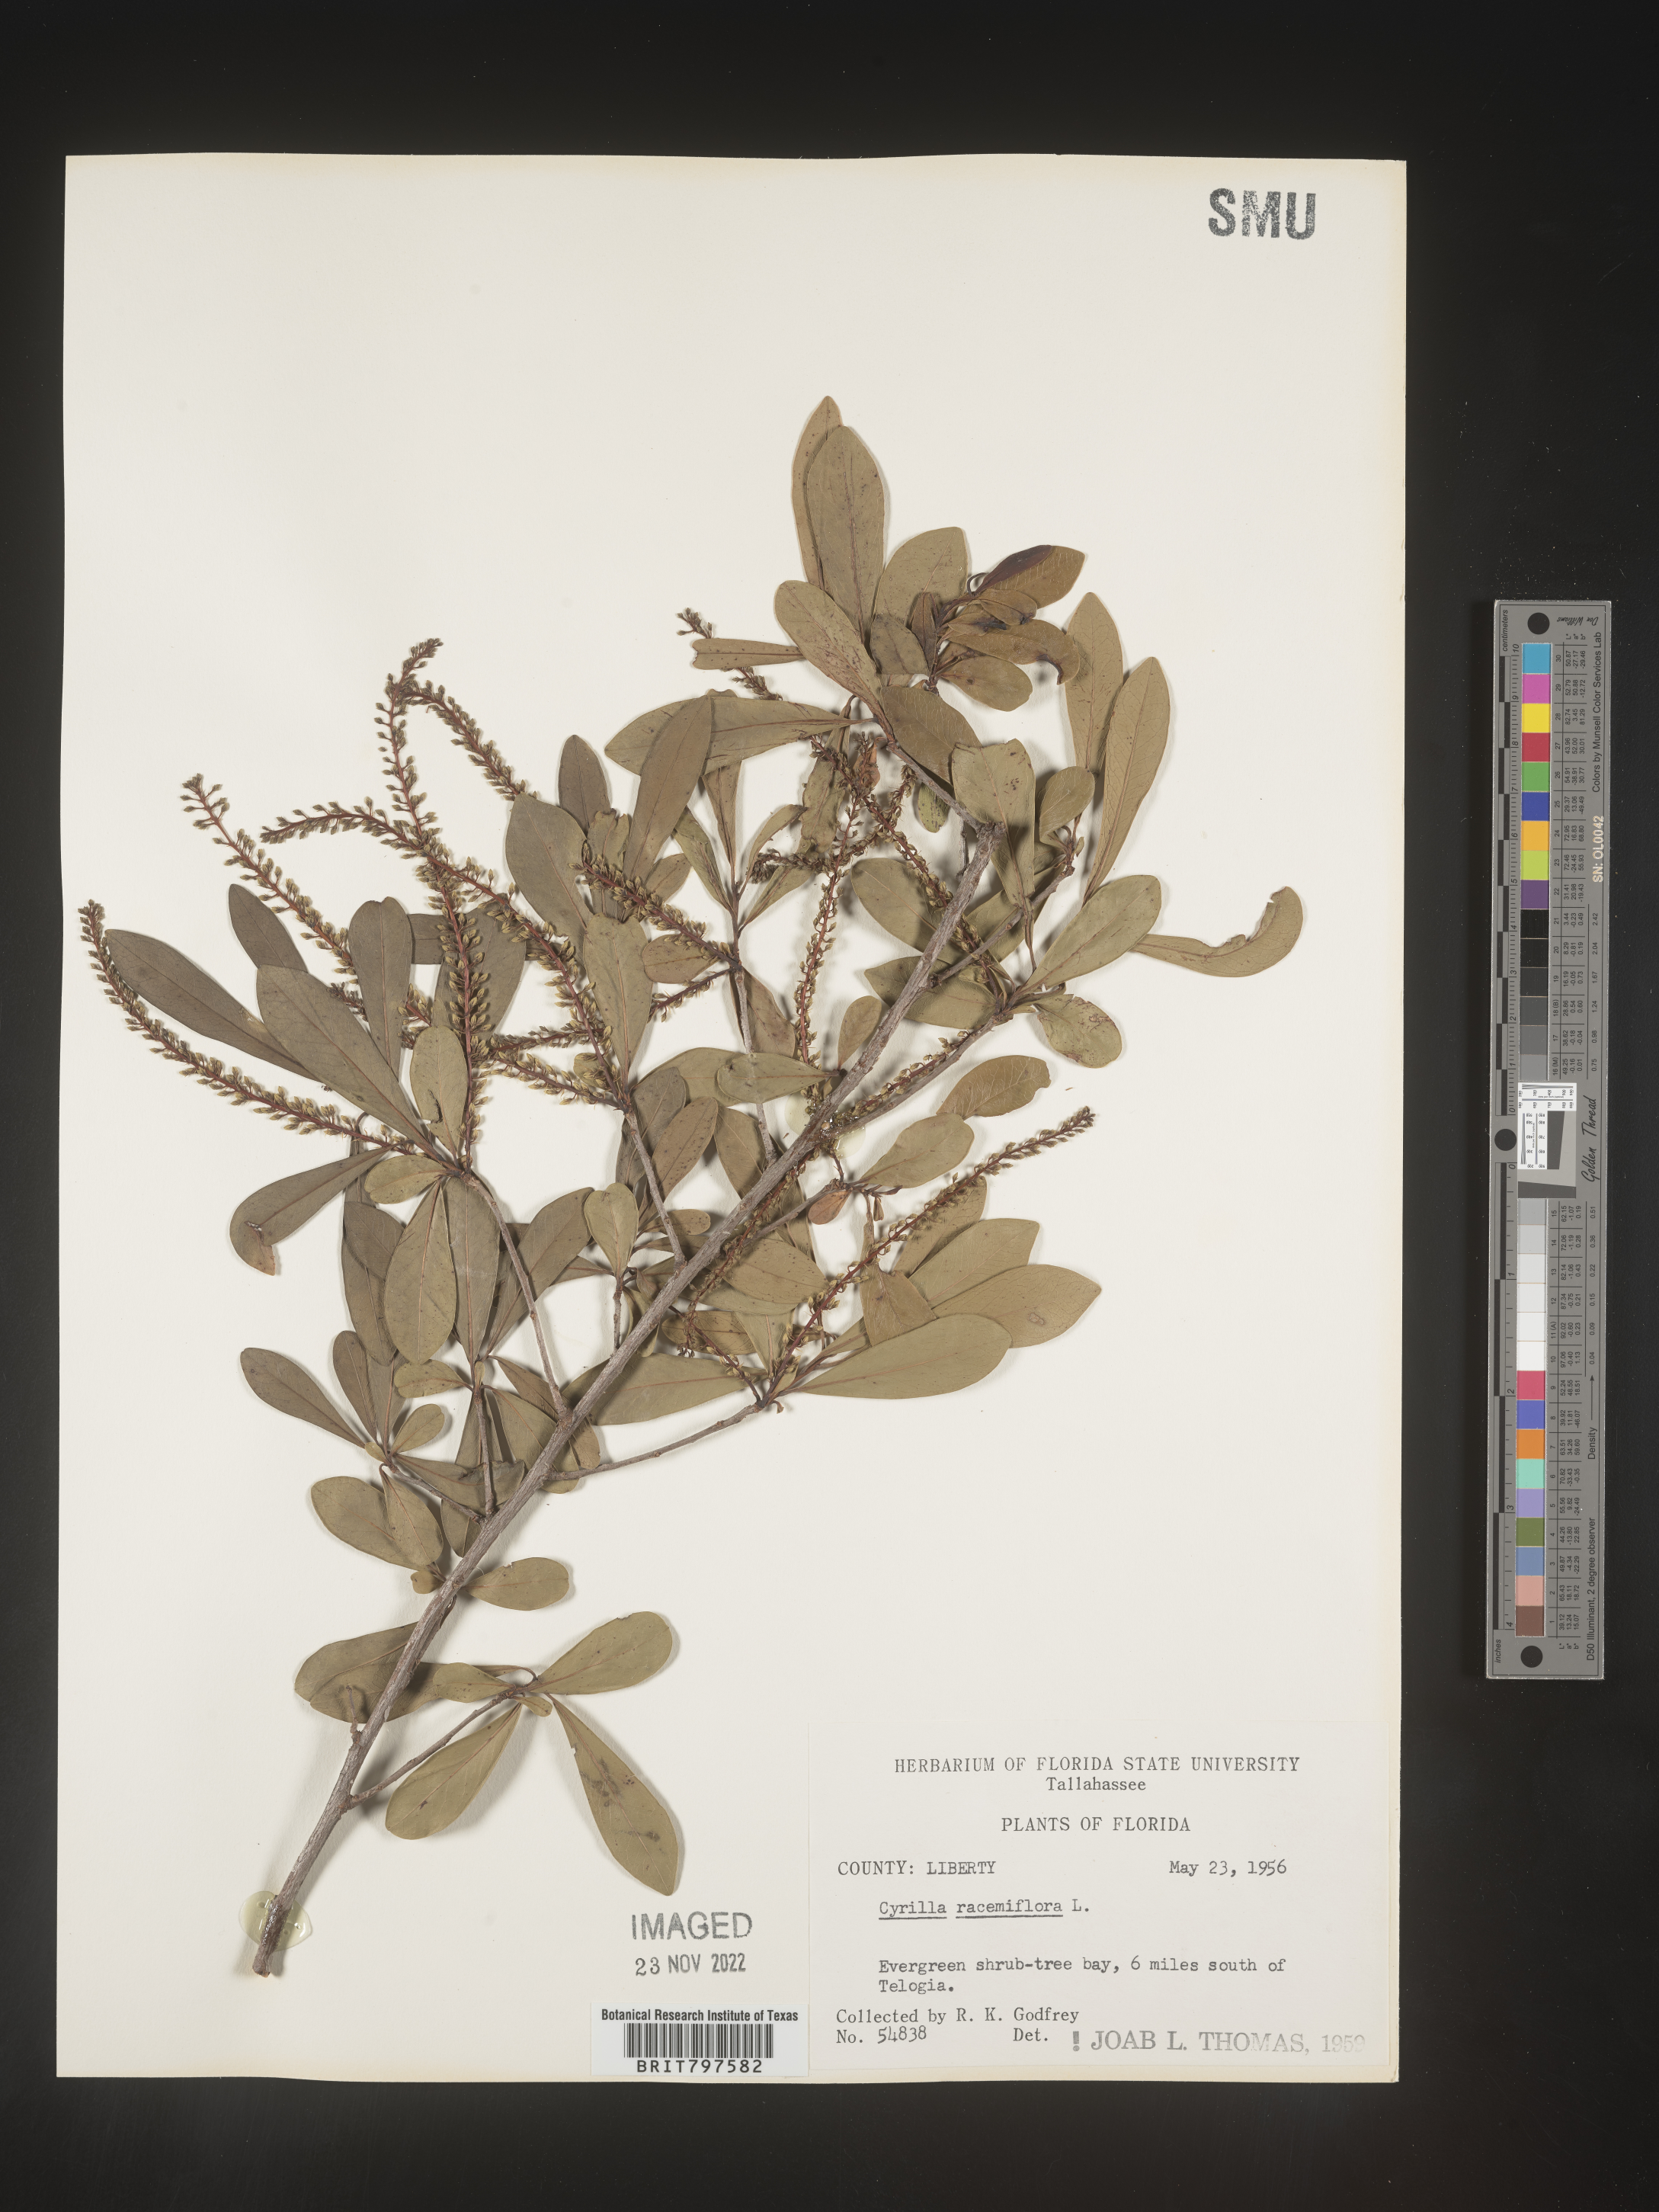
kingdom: Plantae
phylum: Tracheophyta
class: Magnoliopsida
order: Ericales
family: Cyrillaceae
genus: Cyrilla
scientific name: Cyrilla racemiflora
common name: Black titi
